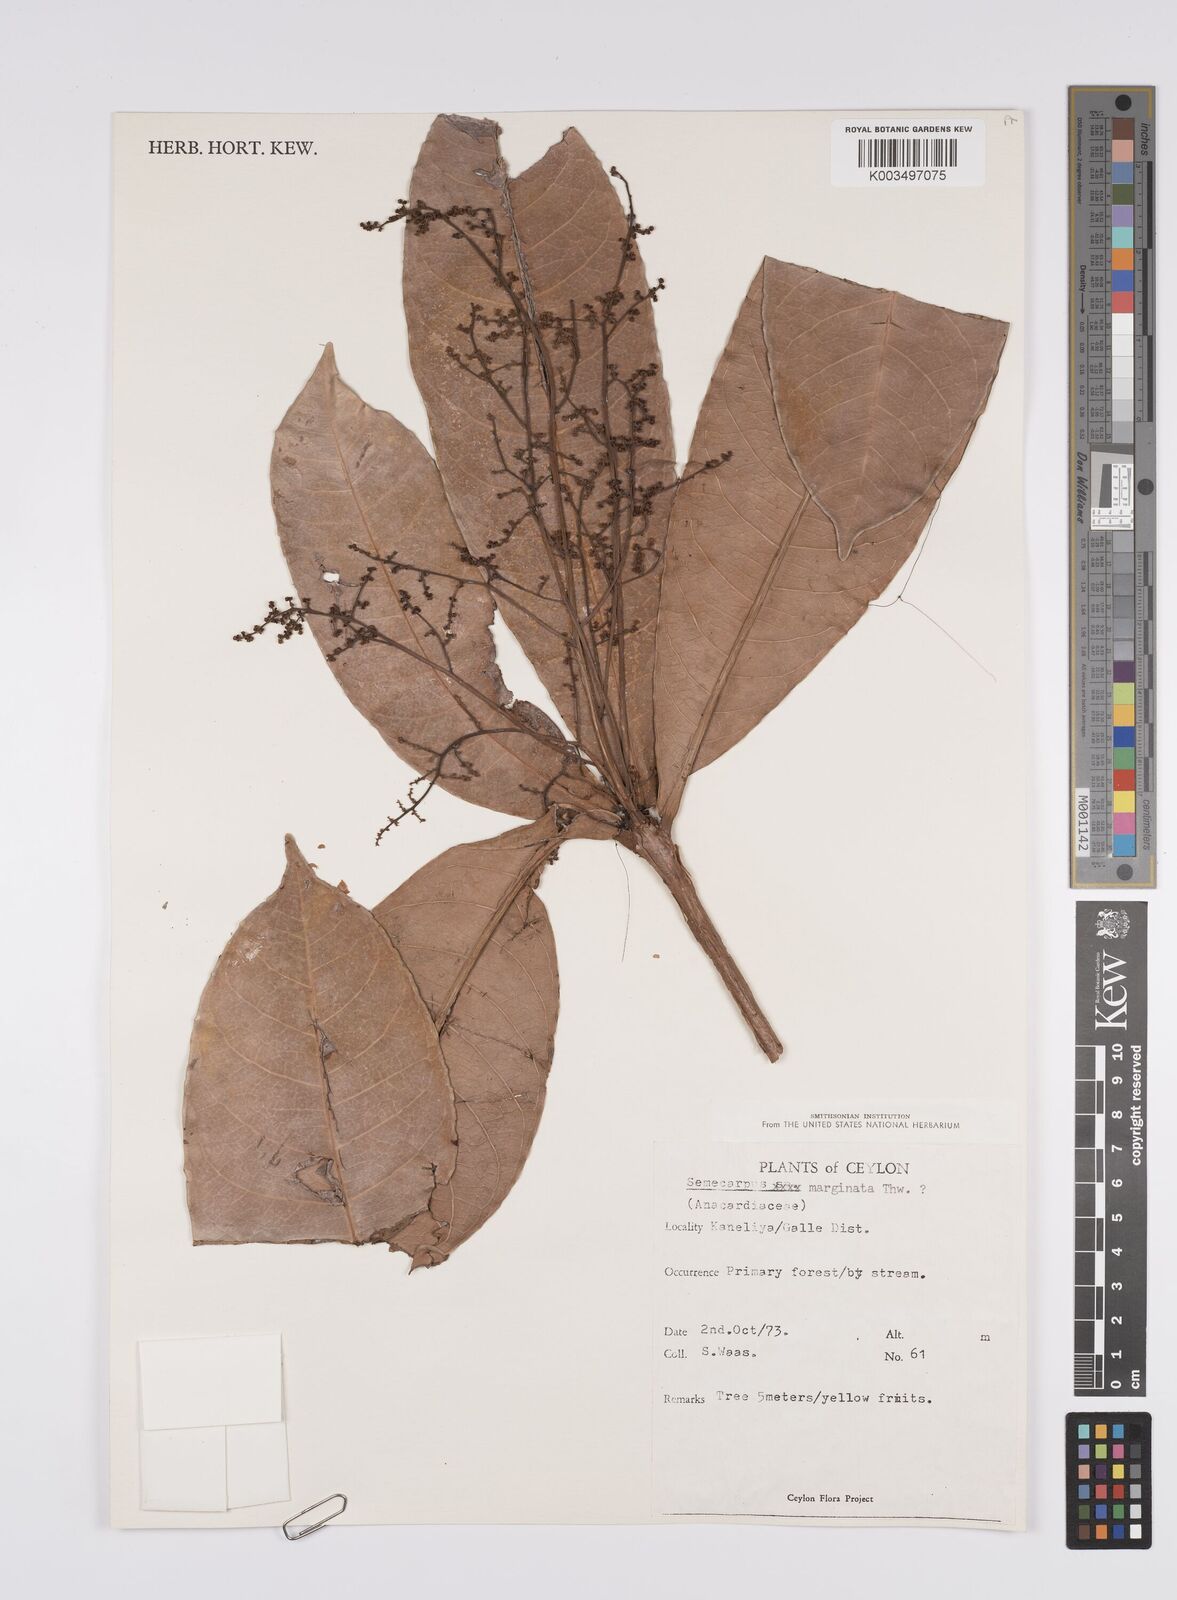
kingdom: Plantae
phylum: Tracheophyta
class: Magnoliopsida
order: Sapindales
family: Anacardiaceae
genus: Semecarpus
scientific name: Semecarpus marginatus
